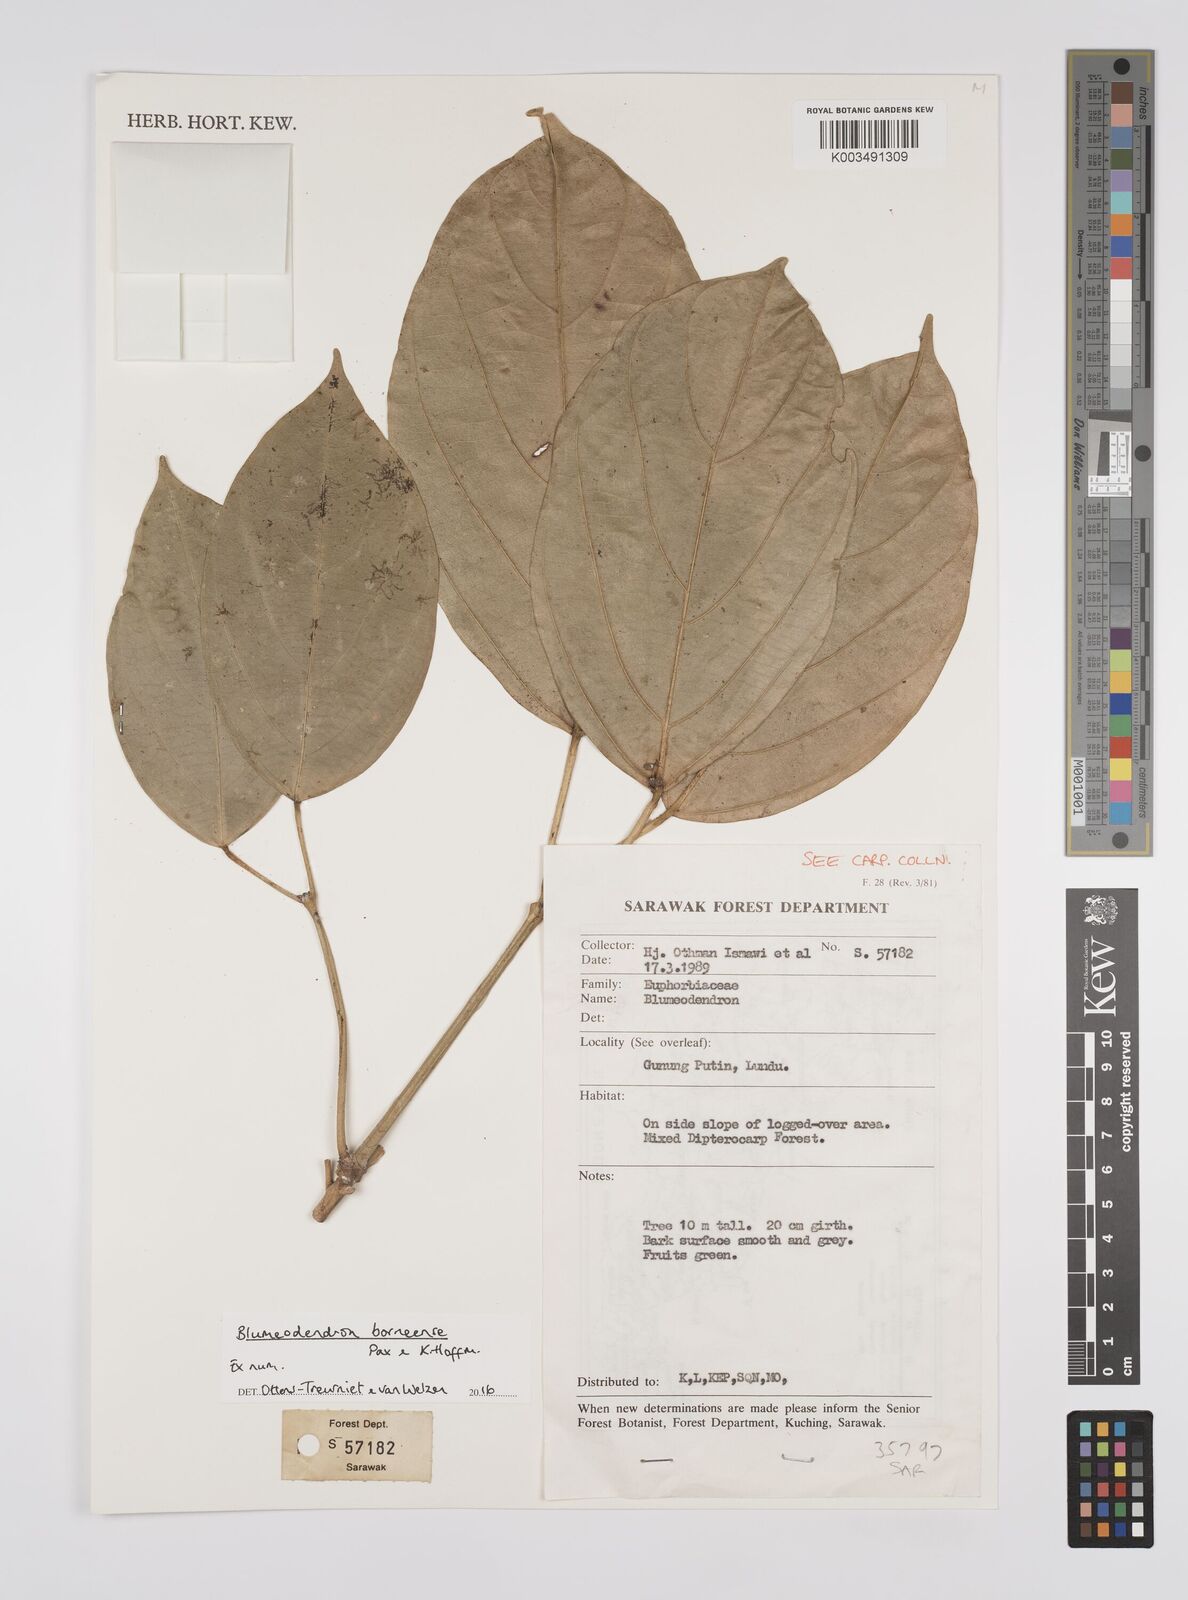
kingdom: Plantae
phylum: Tracheophyta
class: Magnoliopsida
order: Malpighiales
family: Euphorbiaceae
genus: Blumeodendron
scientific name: Blumeodendron borneense
